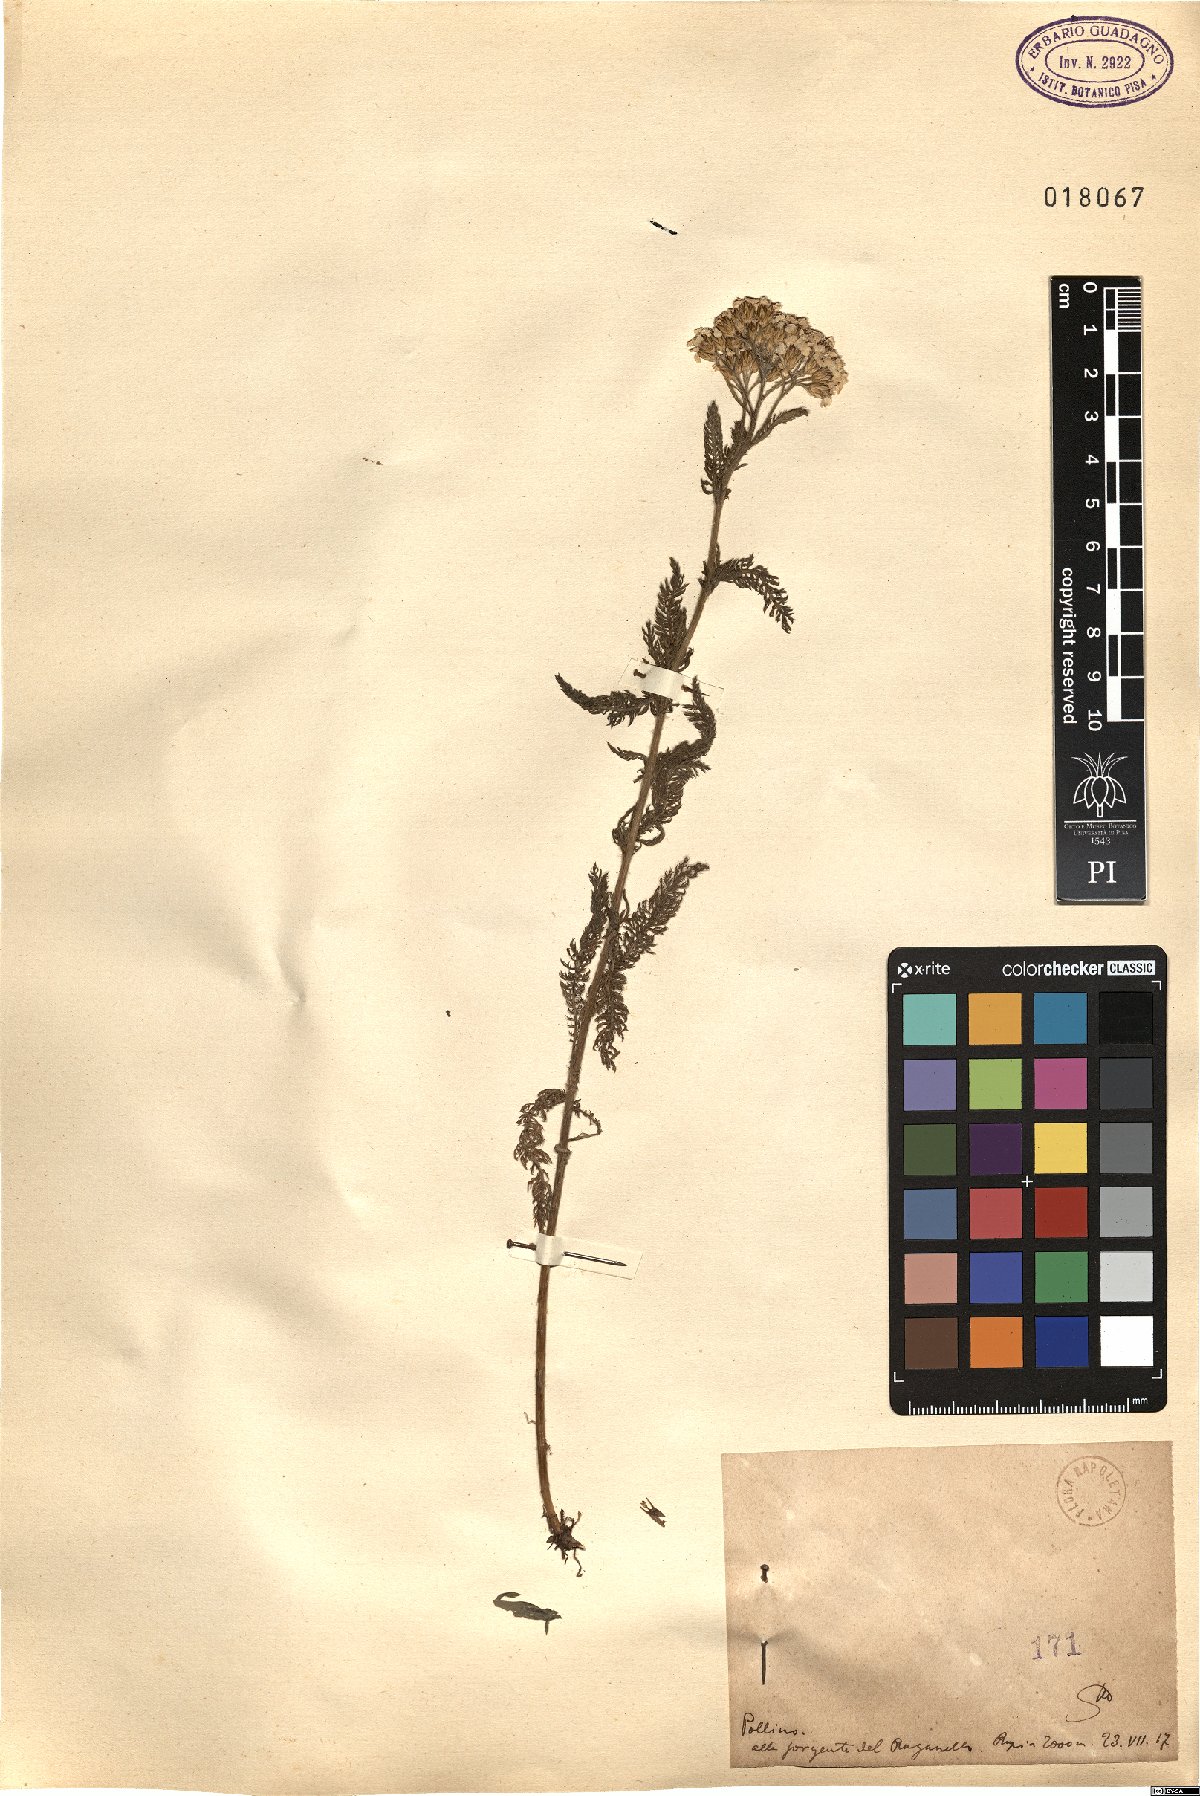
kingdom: Plantae
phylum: Tracheophyta
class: Magnoliopsida
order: Asterales
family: Asteraceae
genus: Achillea
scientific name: Achillea
